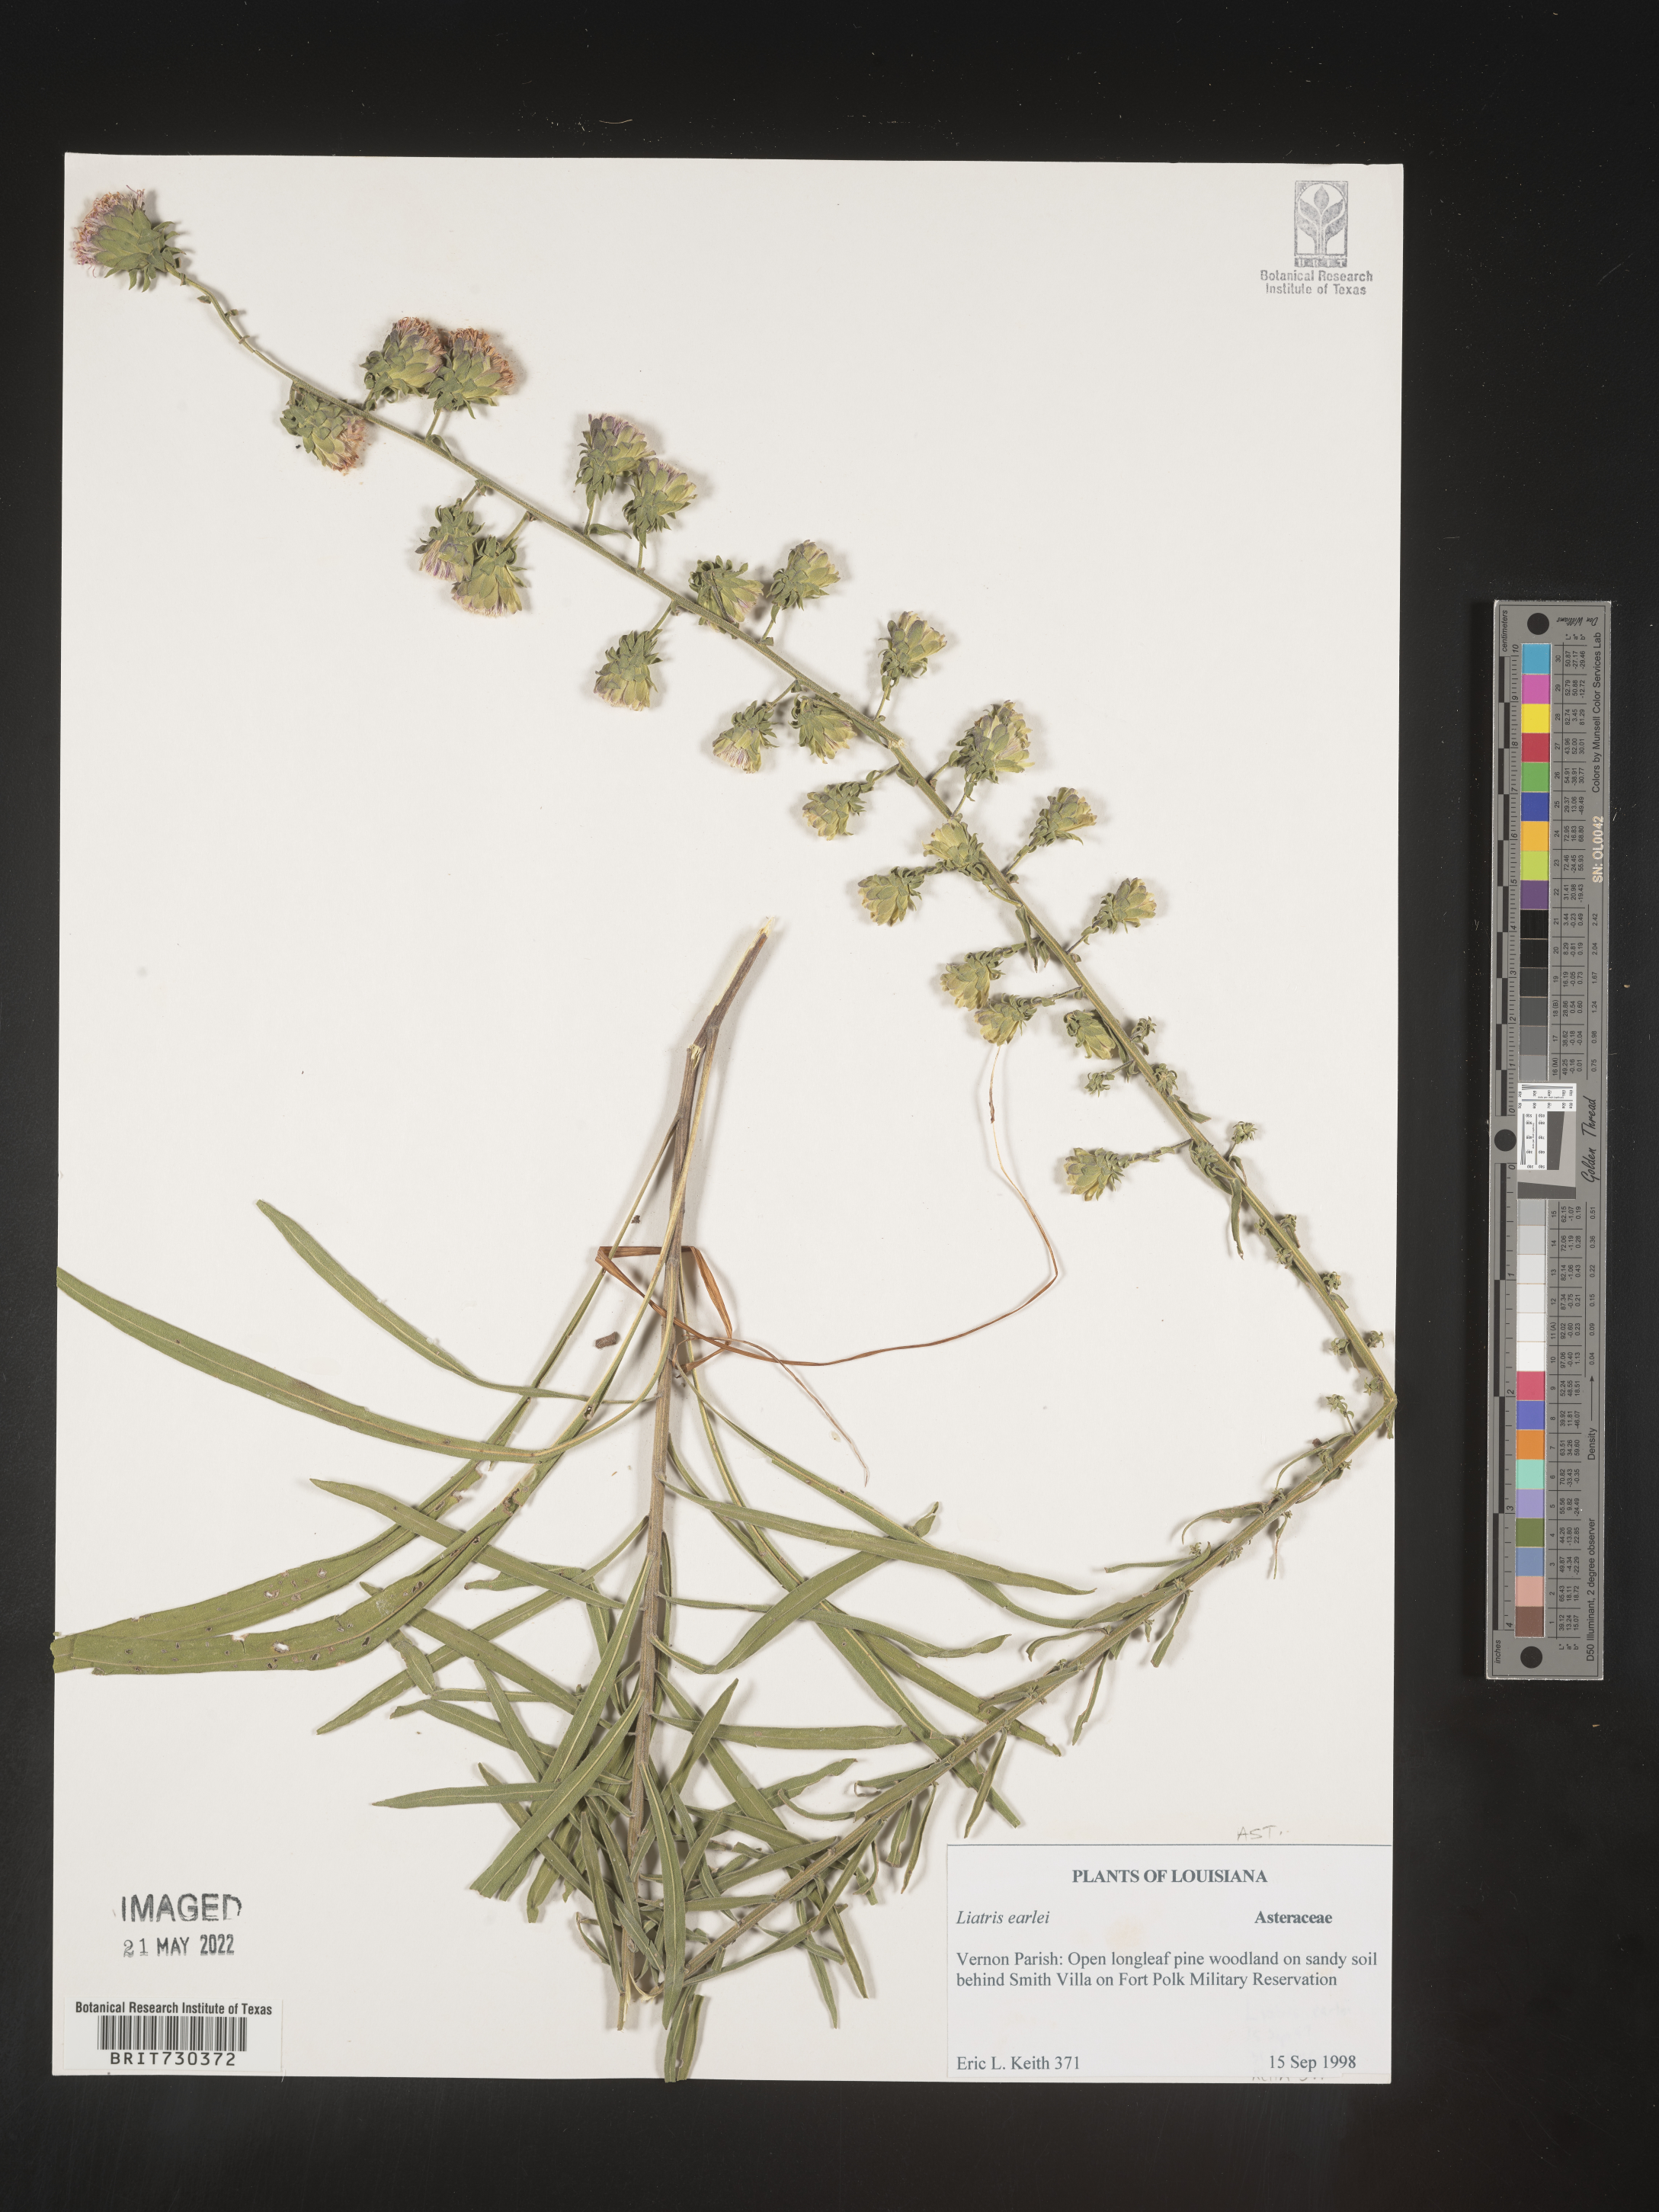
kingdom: Plantae
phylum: Tracheophyta
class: Magnoliopsida
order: Asterales
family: Asteraceae
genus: Liatris
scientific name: Liatris spheroidea
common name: Spherical blazing-star
